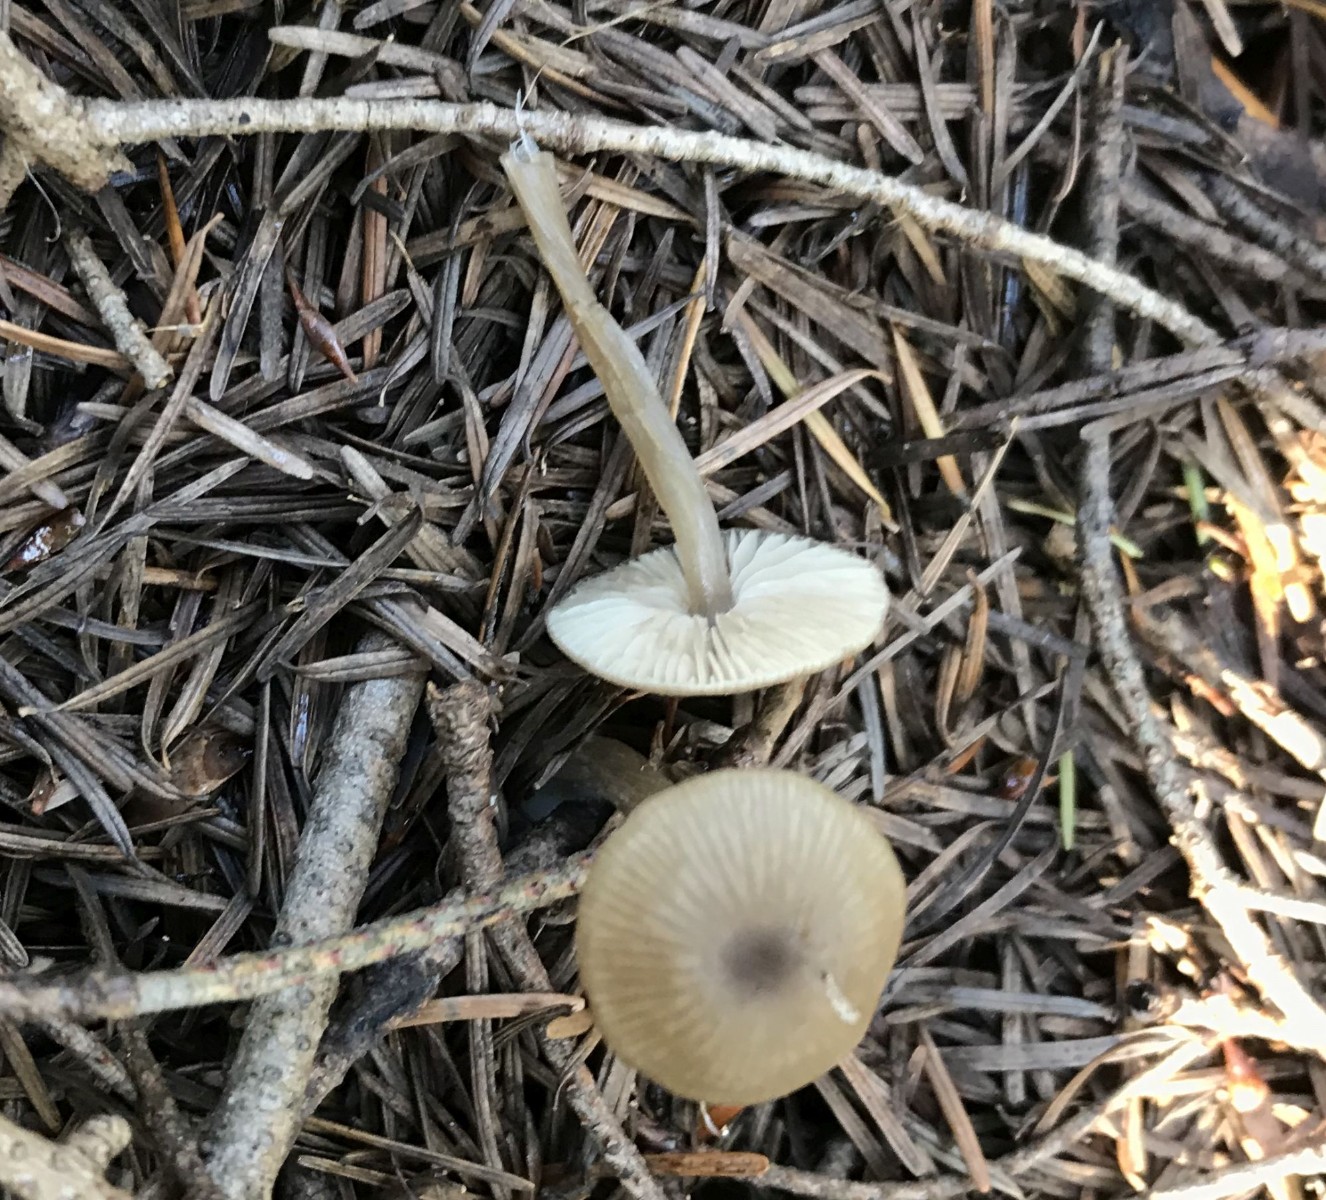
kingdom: Fungi
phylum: Basidiomycota
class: Agaricomycetes
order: Agaricales
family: Entolomataceae
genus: Entoloma
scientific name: Entoloma
